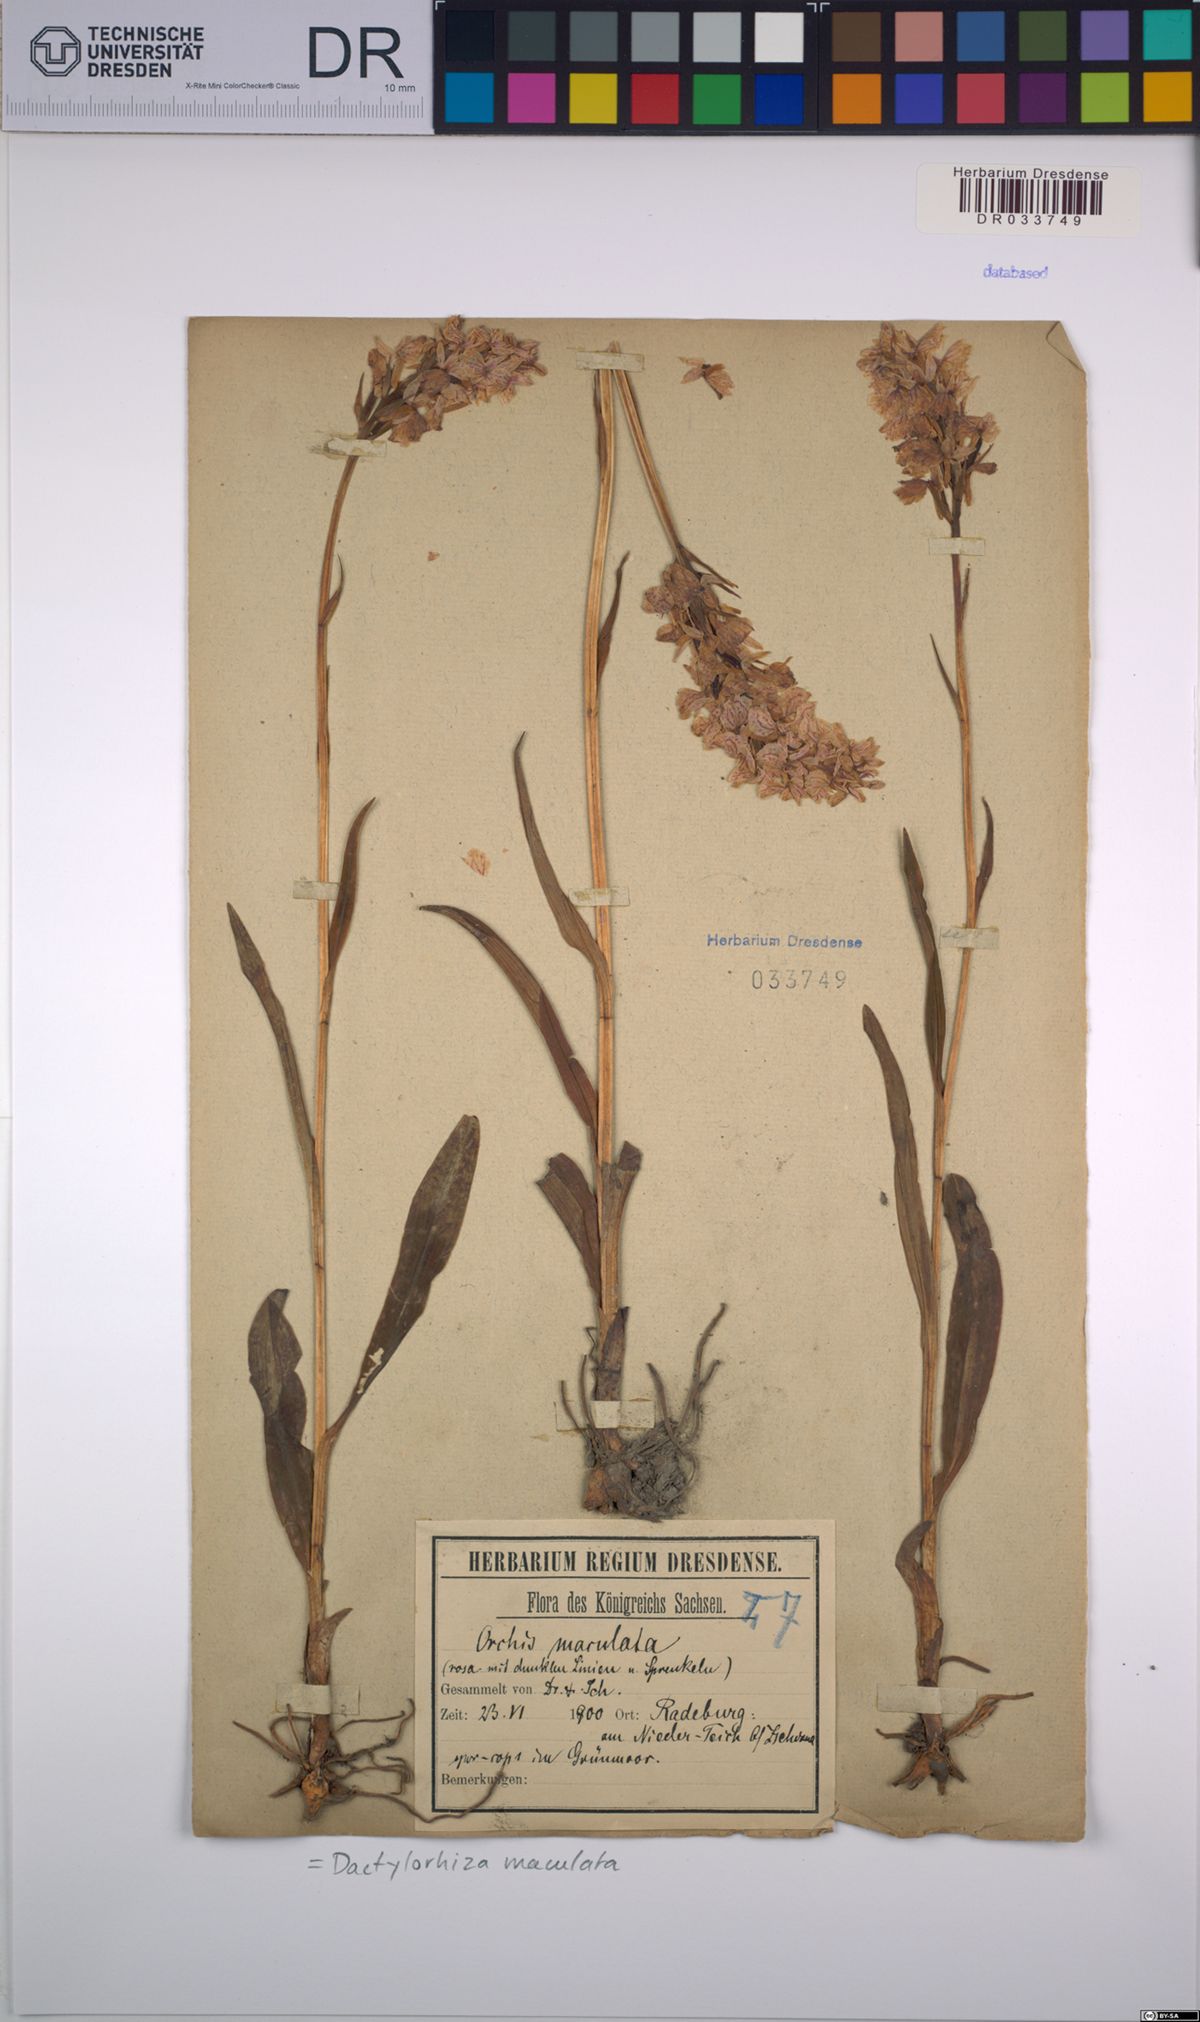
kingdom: Plantae
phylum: Tracheophyta
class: Liliopsida
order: Asparagales
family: Orchidaceae
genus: Dactylorhiza
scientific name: Dactylorhiza maculata
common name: Heath spotted-orchid
